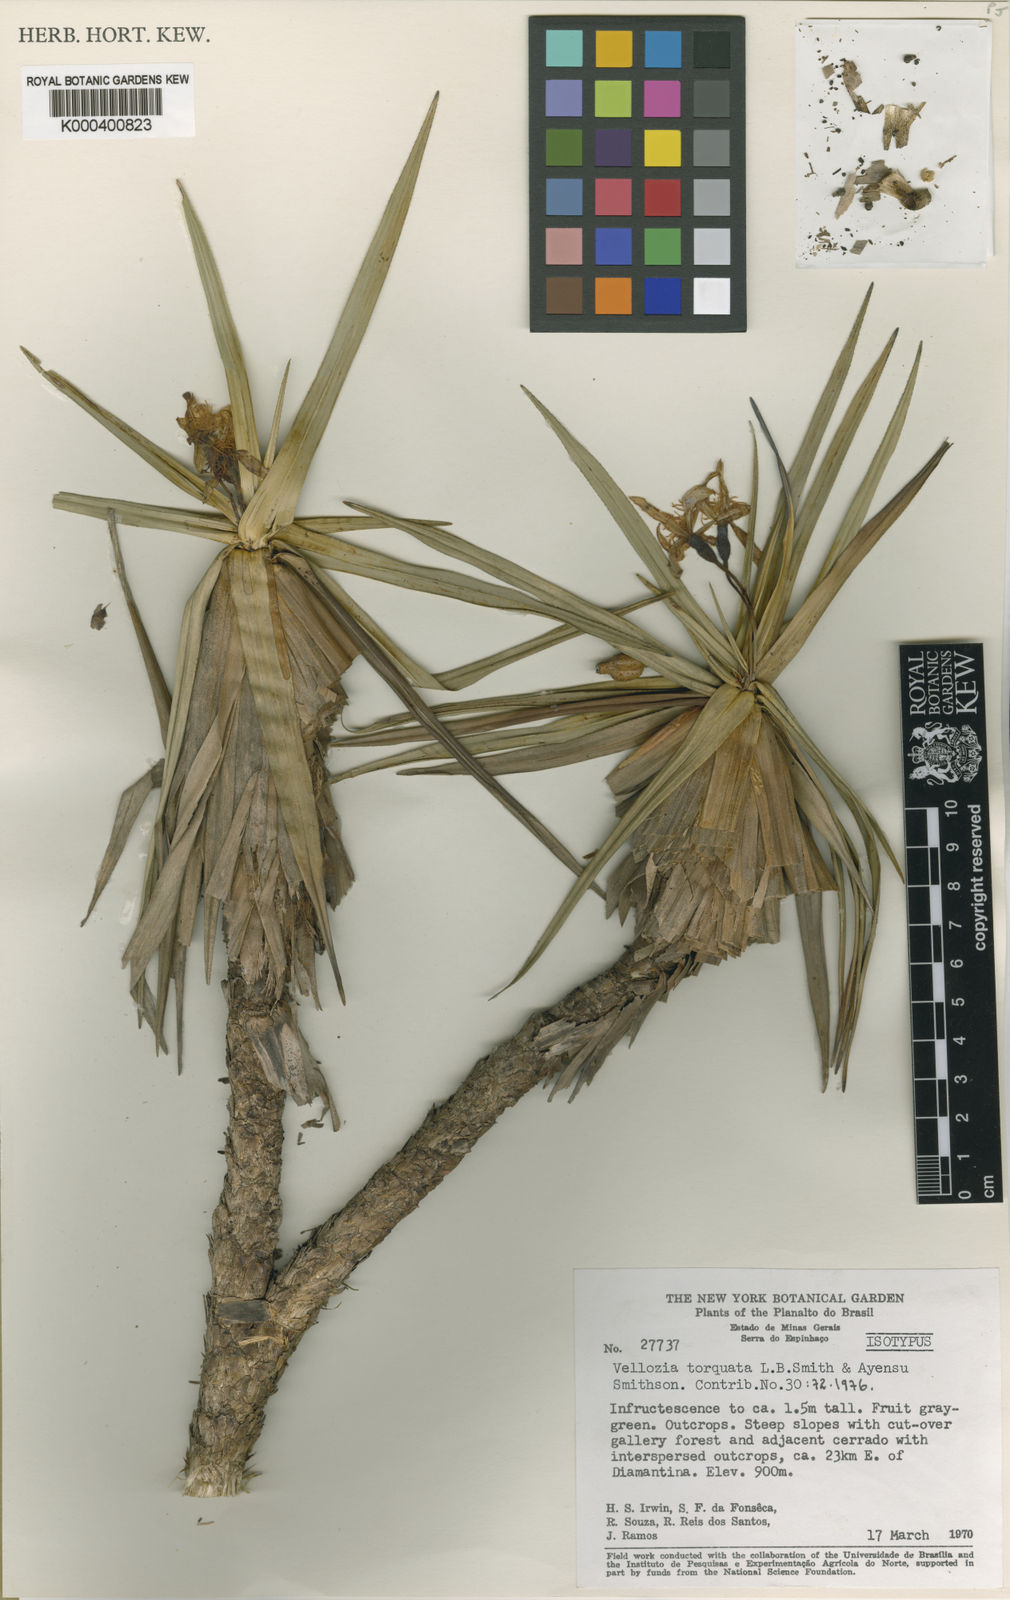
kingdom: Plantae
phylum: Tracheophyta
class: Liliopsida
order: Pandanales
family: Velloziaceae
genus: Vellozia
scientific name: Vellozia torquata
